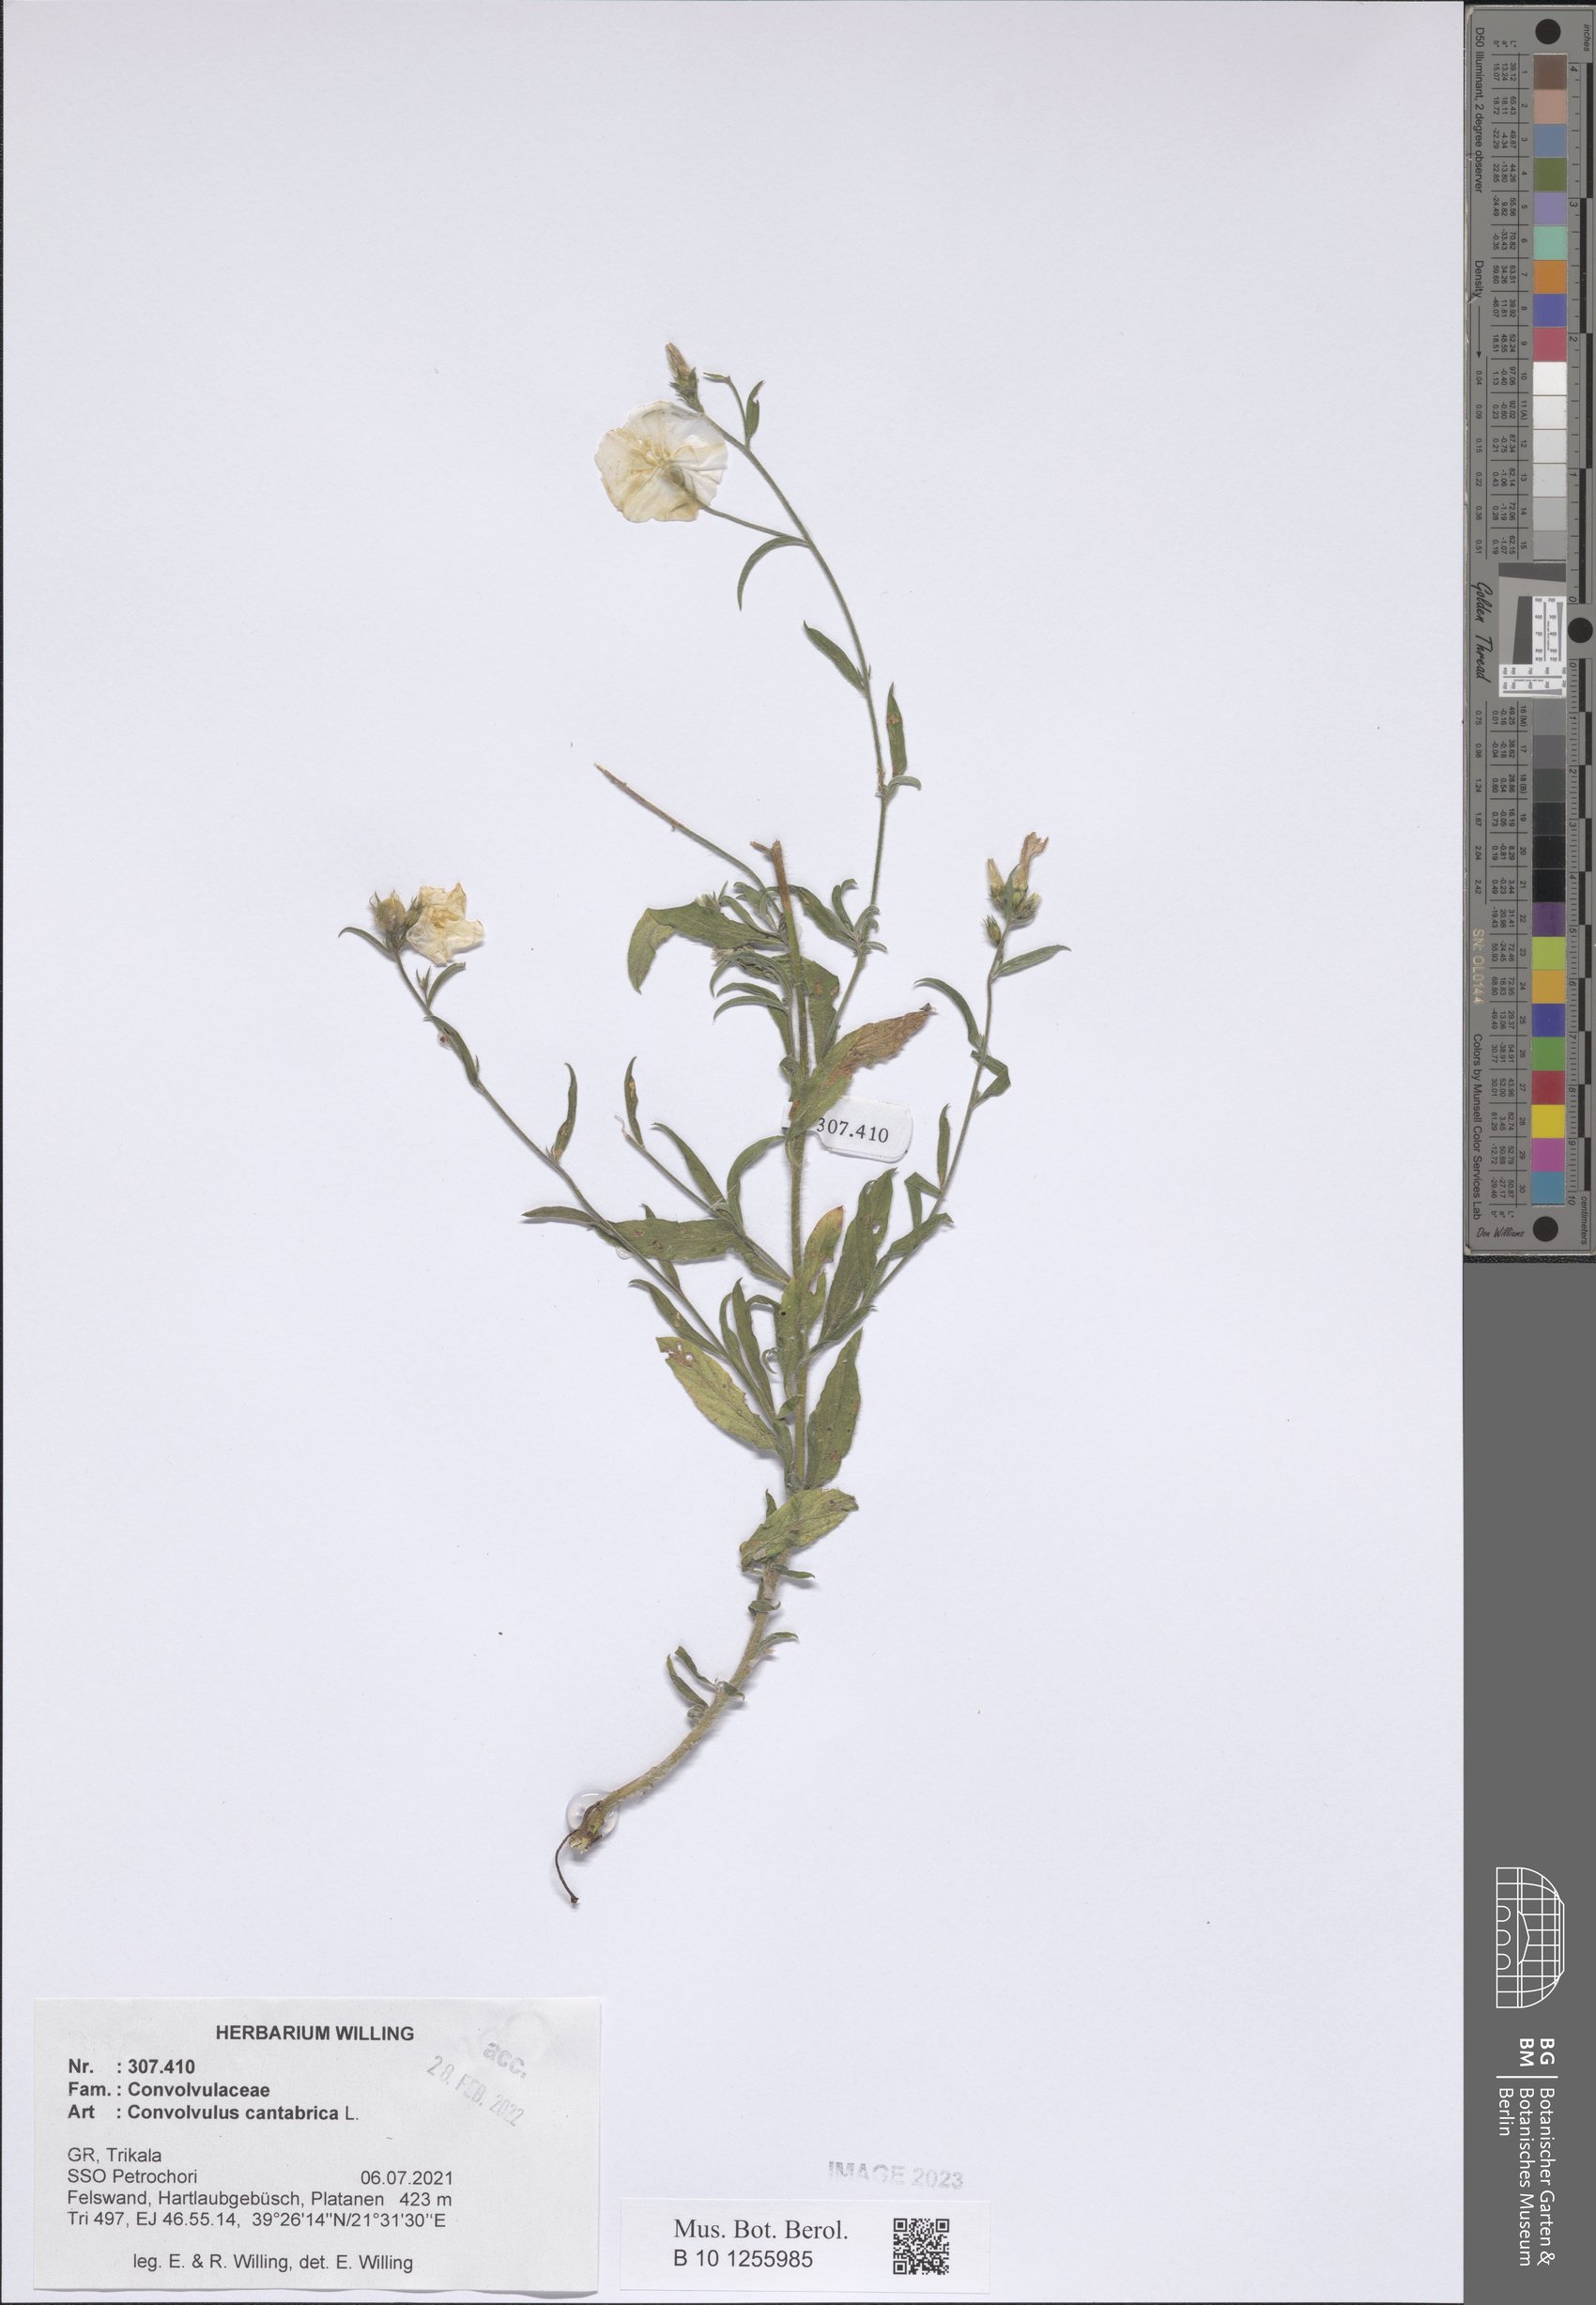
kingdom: Plantae
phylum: Tracheophyta
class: Magnoliopsida
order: Solanales
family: Convolvulaceae
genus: Convolvulus
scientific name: Convolvulus cantabrica
